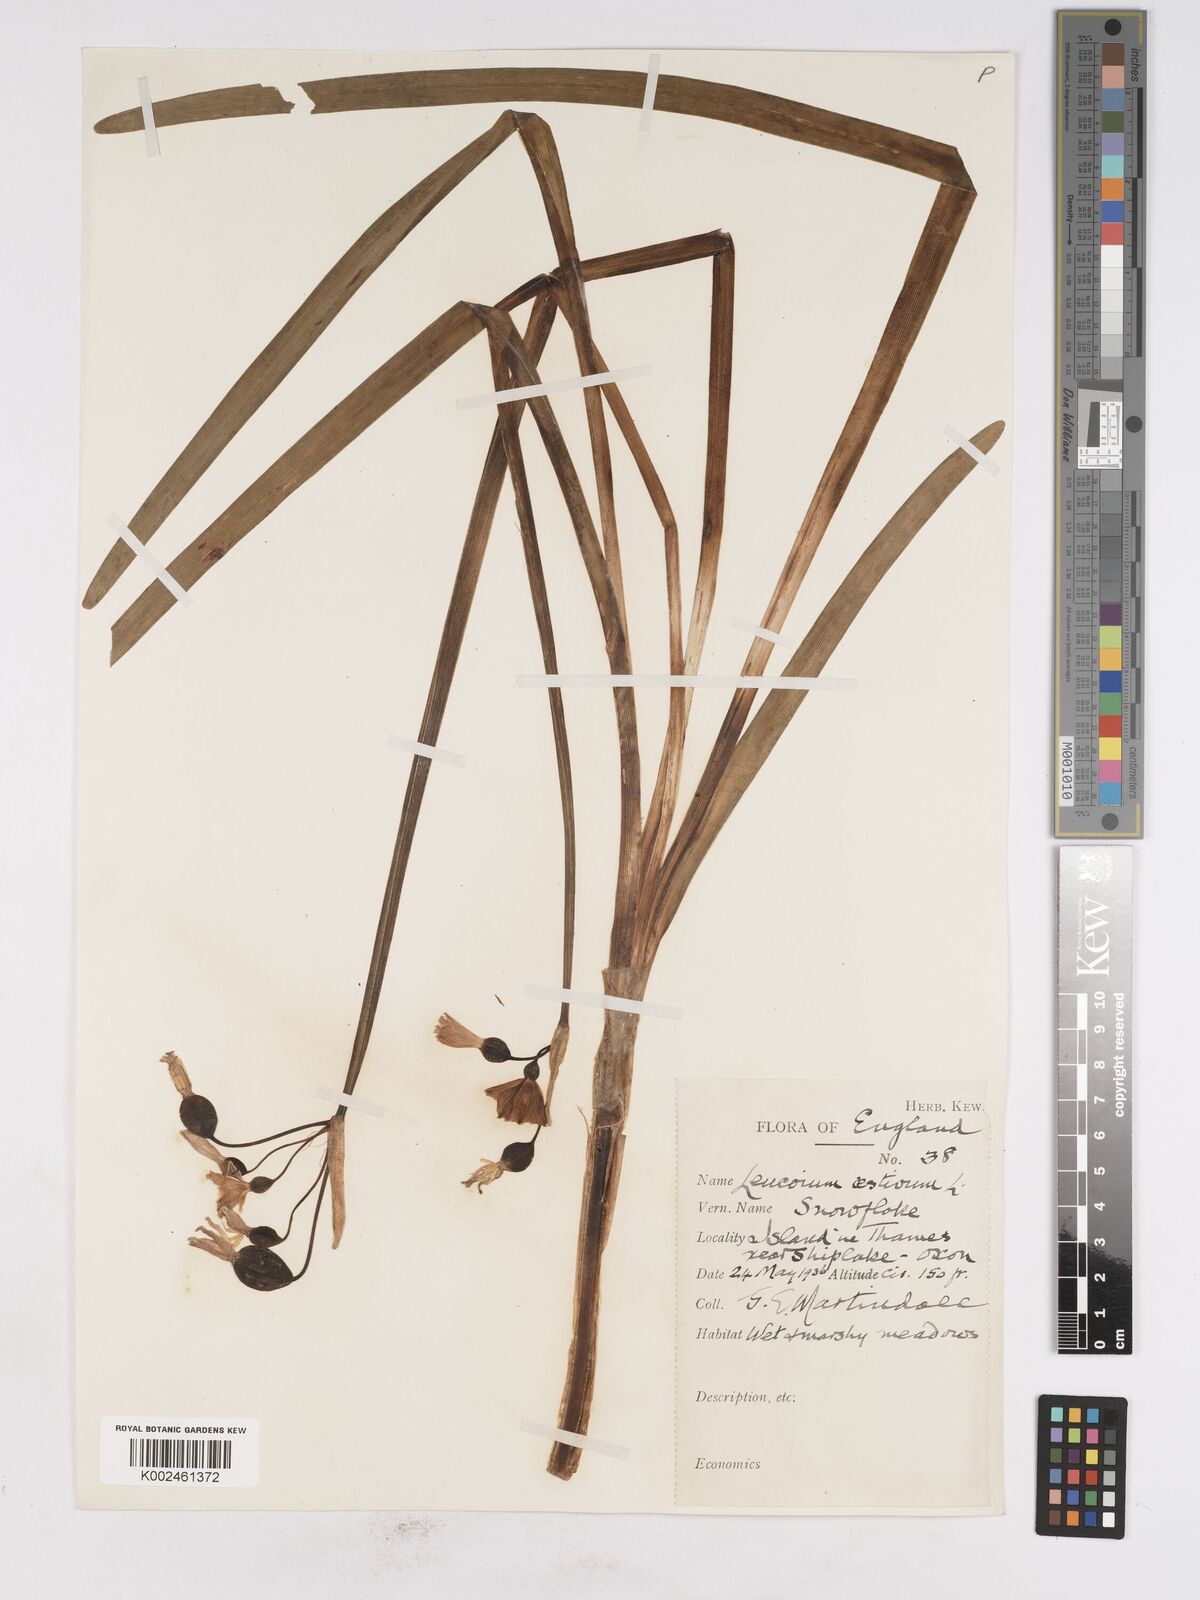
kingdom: Plantae
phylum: Tracheophyta
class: Liliopsida
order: Asparagales
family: Amaryllidaceae
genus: Leucojum
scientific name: Leucojum aestivum
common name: Summer snowflake
